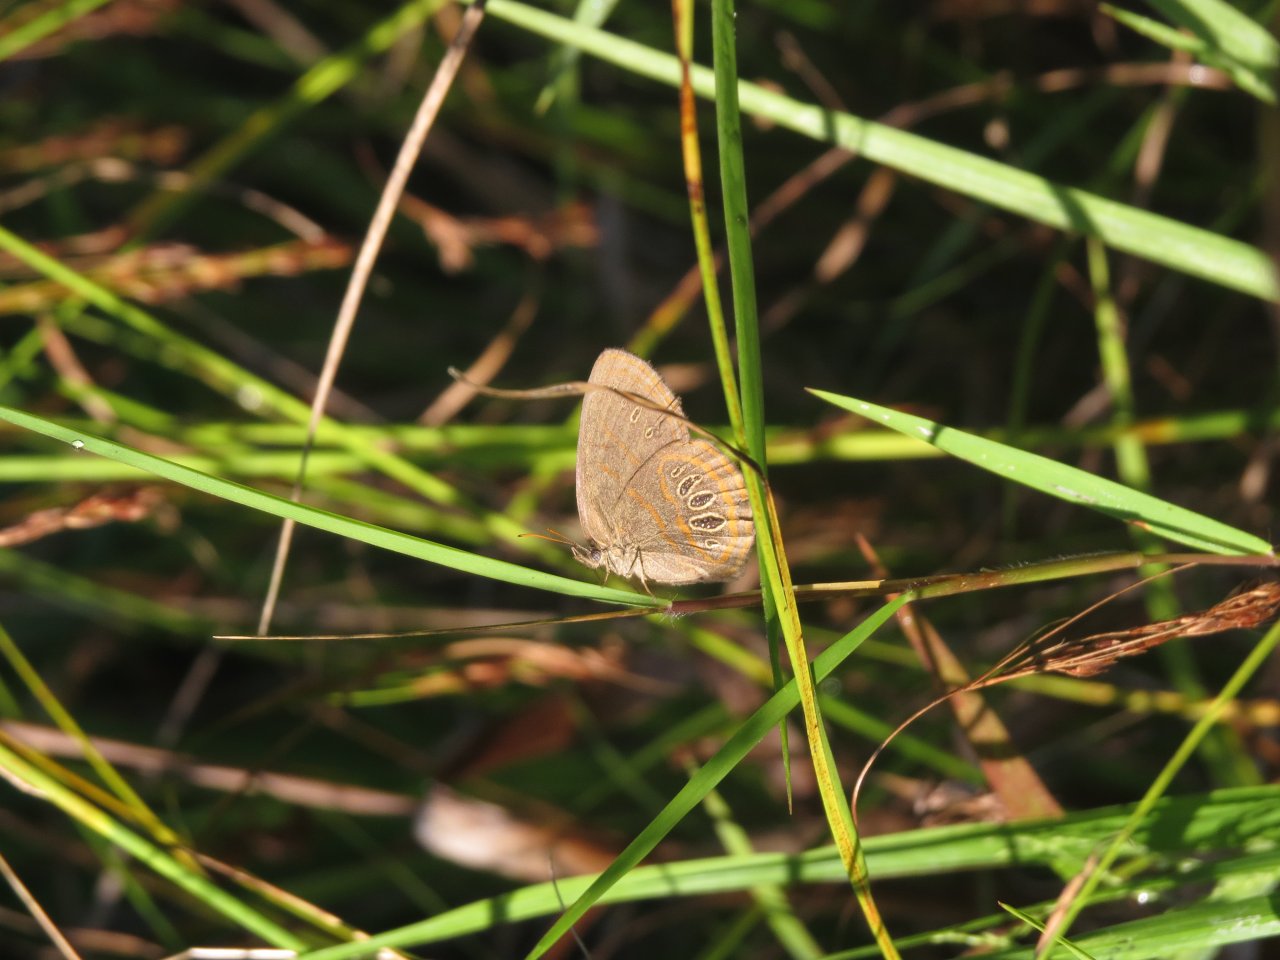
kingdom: Animalia
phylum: Arthropoda
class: Insecta
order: Lepidoptera
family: Nymphalidae
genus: Euptychia
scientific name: Euptychia Neonympha helicta
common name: Helicta Satyr
